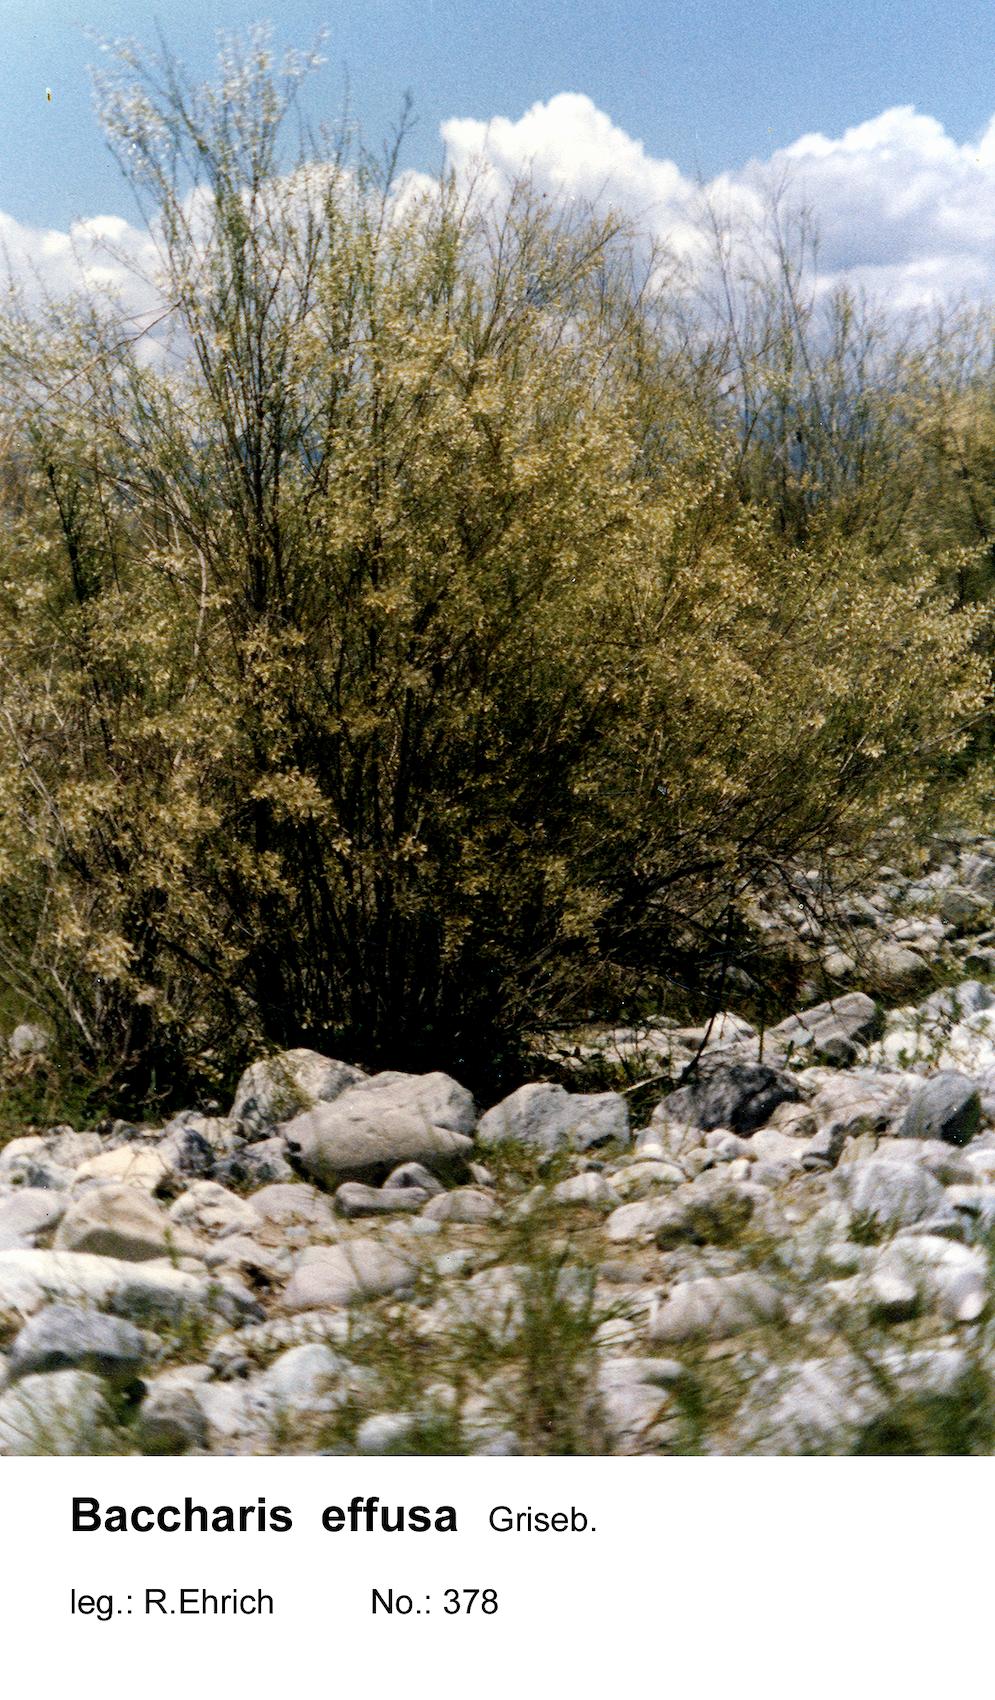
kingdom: Plantae
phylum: Tracheophyta
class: Magnoliopsida
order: Asterales
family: Asteraceae
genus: Baccharis
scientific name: Baccharis effusa
